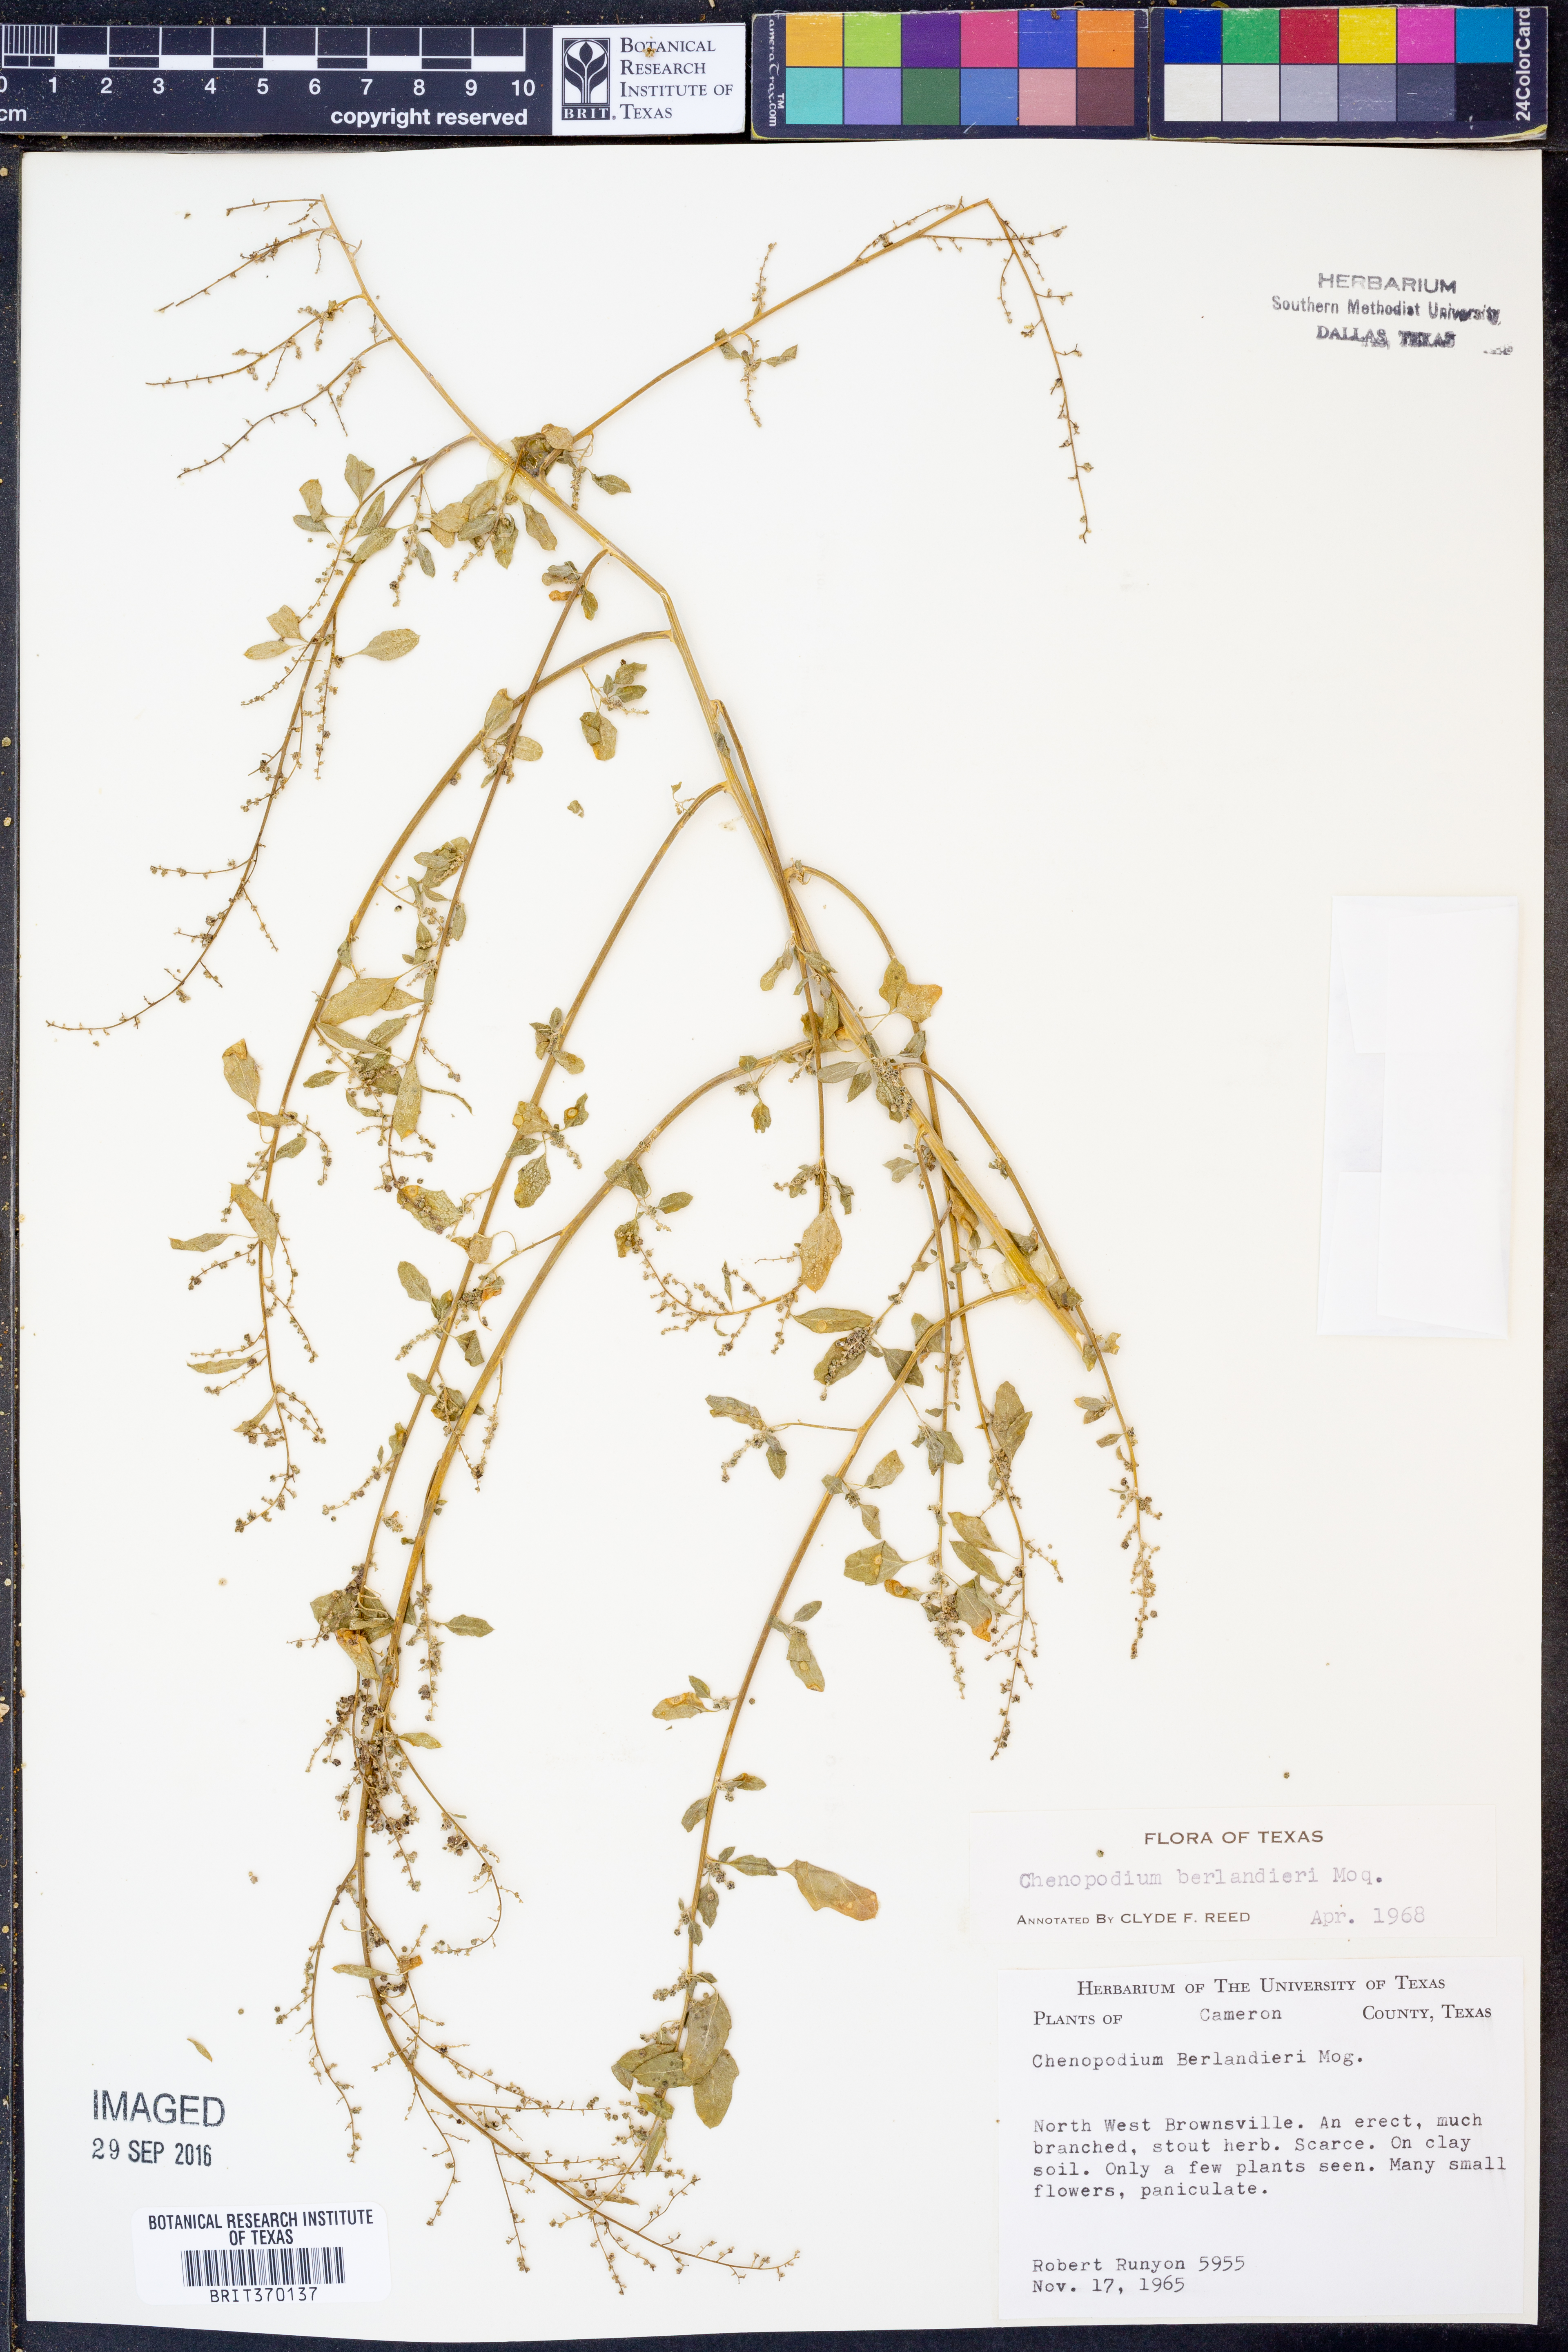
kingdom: Plantae
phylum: Tracheophyta
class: Magnoliopsida
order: Caryophyllales
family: Amaranthaceae
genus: Chenopodium
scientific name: Chenopodium berlandieri
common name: Pit-seed goosefoot
